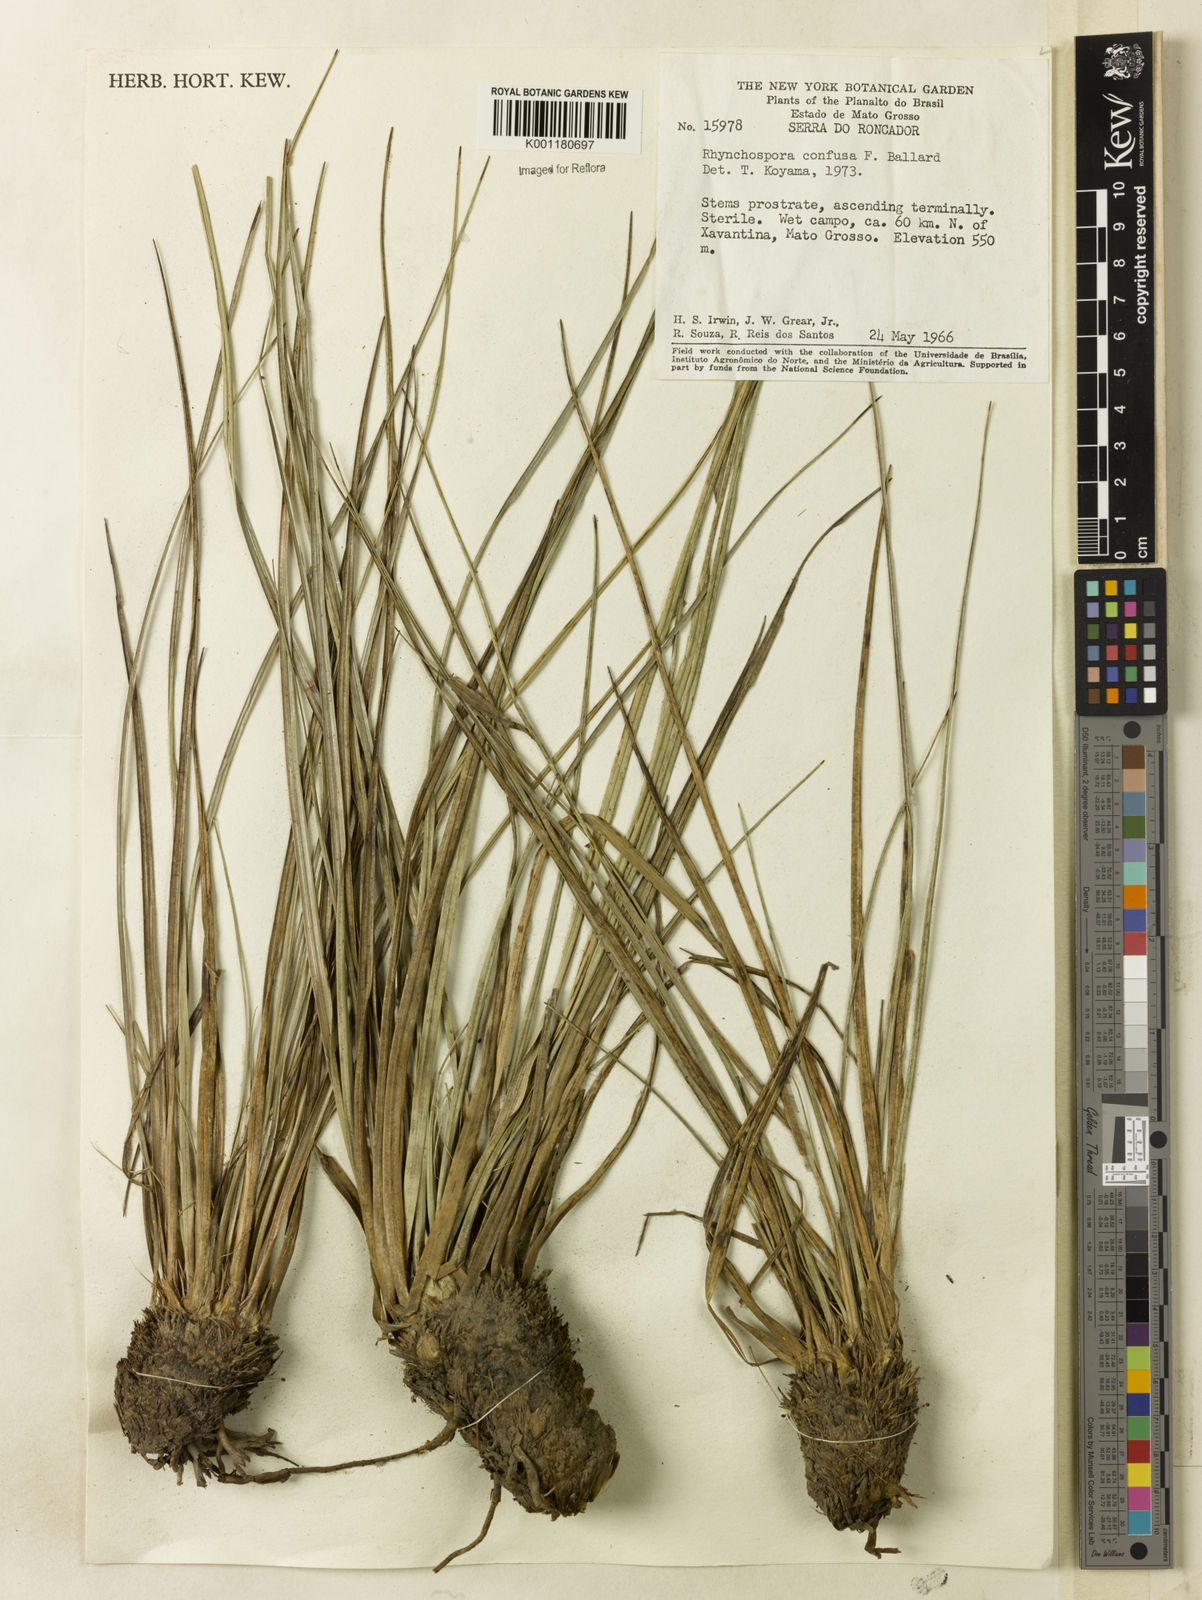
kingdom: Plantae
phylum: Tracheophyta
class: Liliopsida
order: Poales
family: Cyperaceae
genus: Rhynchospora
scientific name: Rhynchospora confusa
